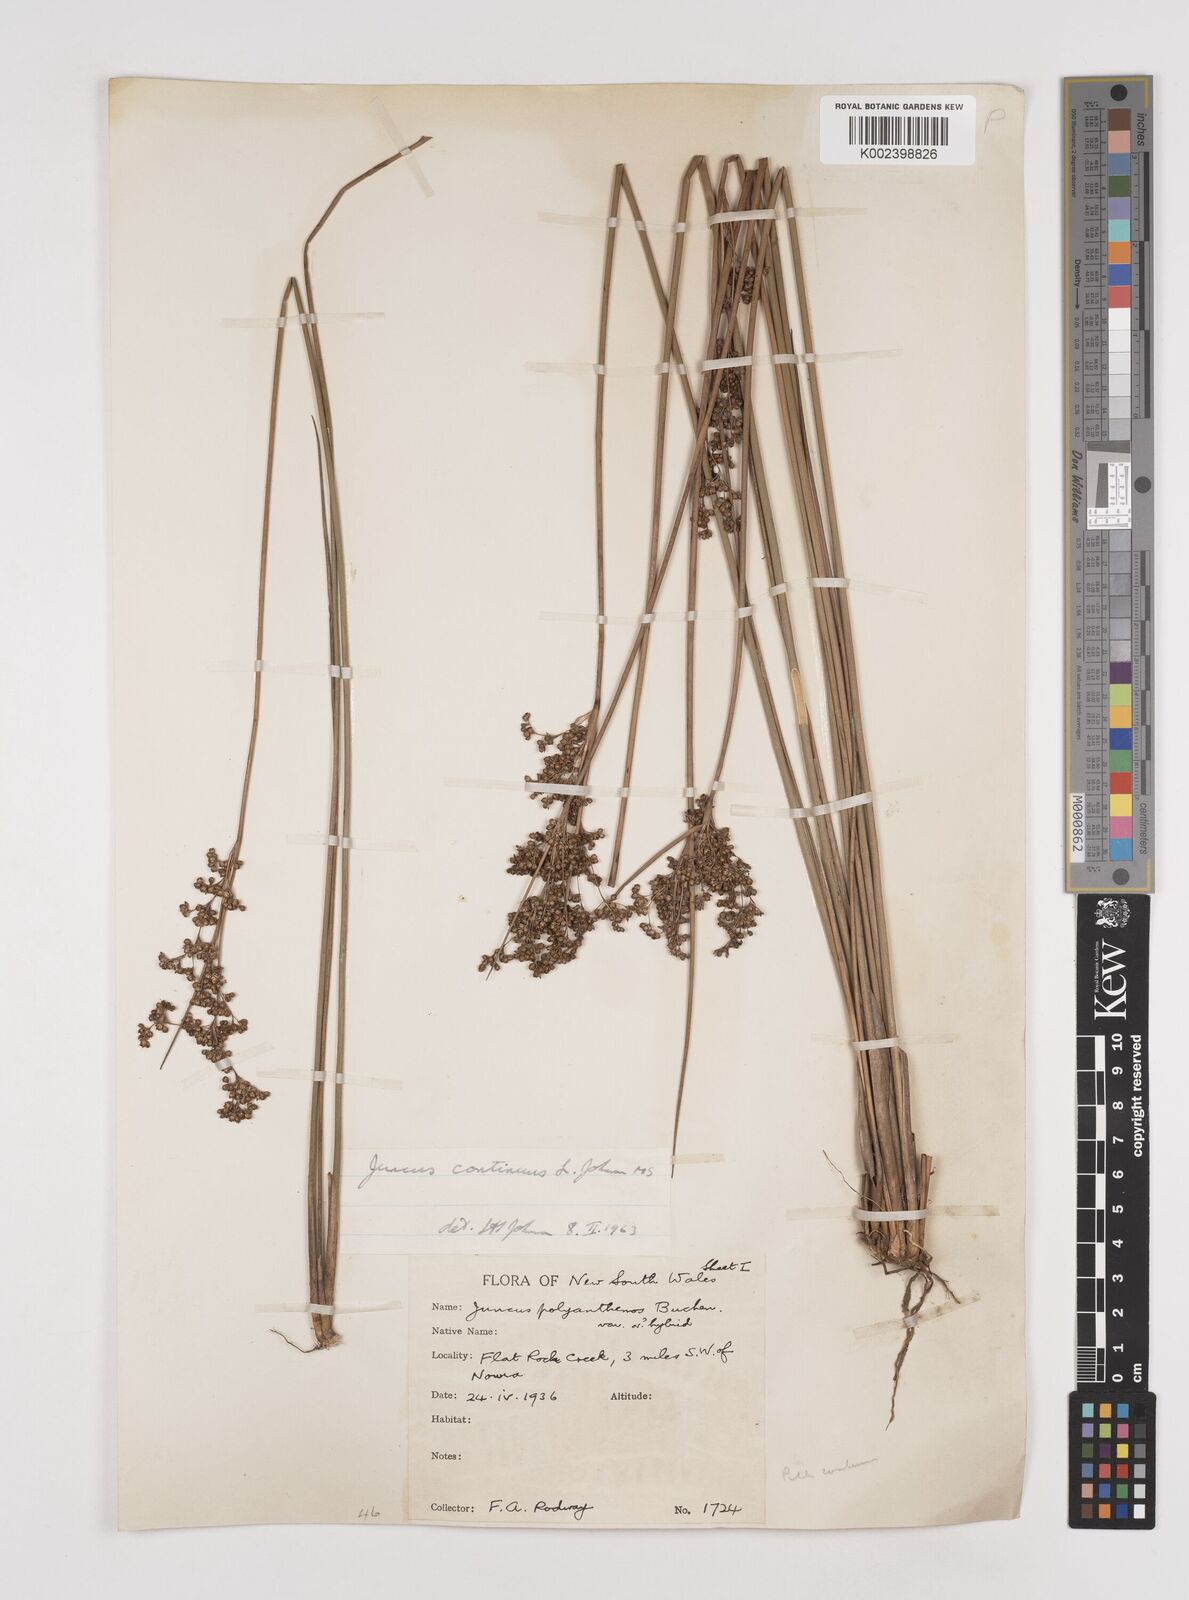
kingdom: Plantae
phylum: Tracheophyta
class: Liliopsida
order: Poales
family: Juncaceae
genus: Juncus
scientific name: Juncus continuus
